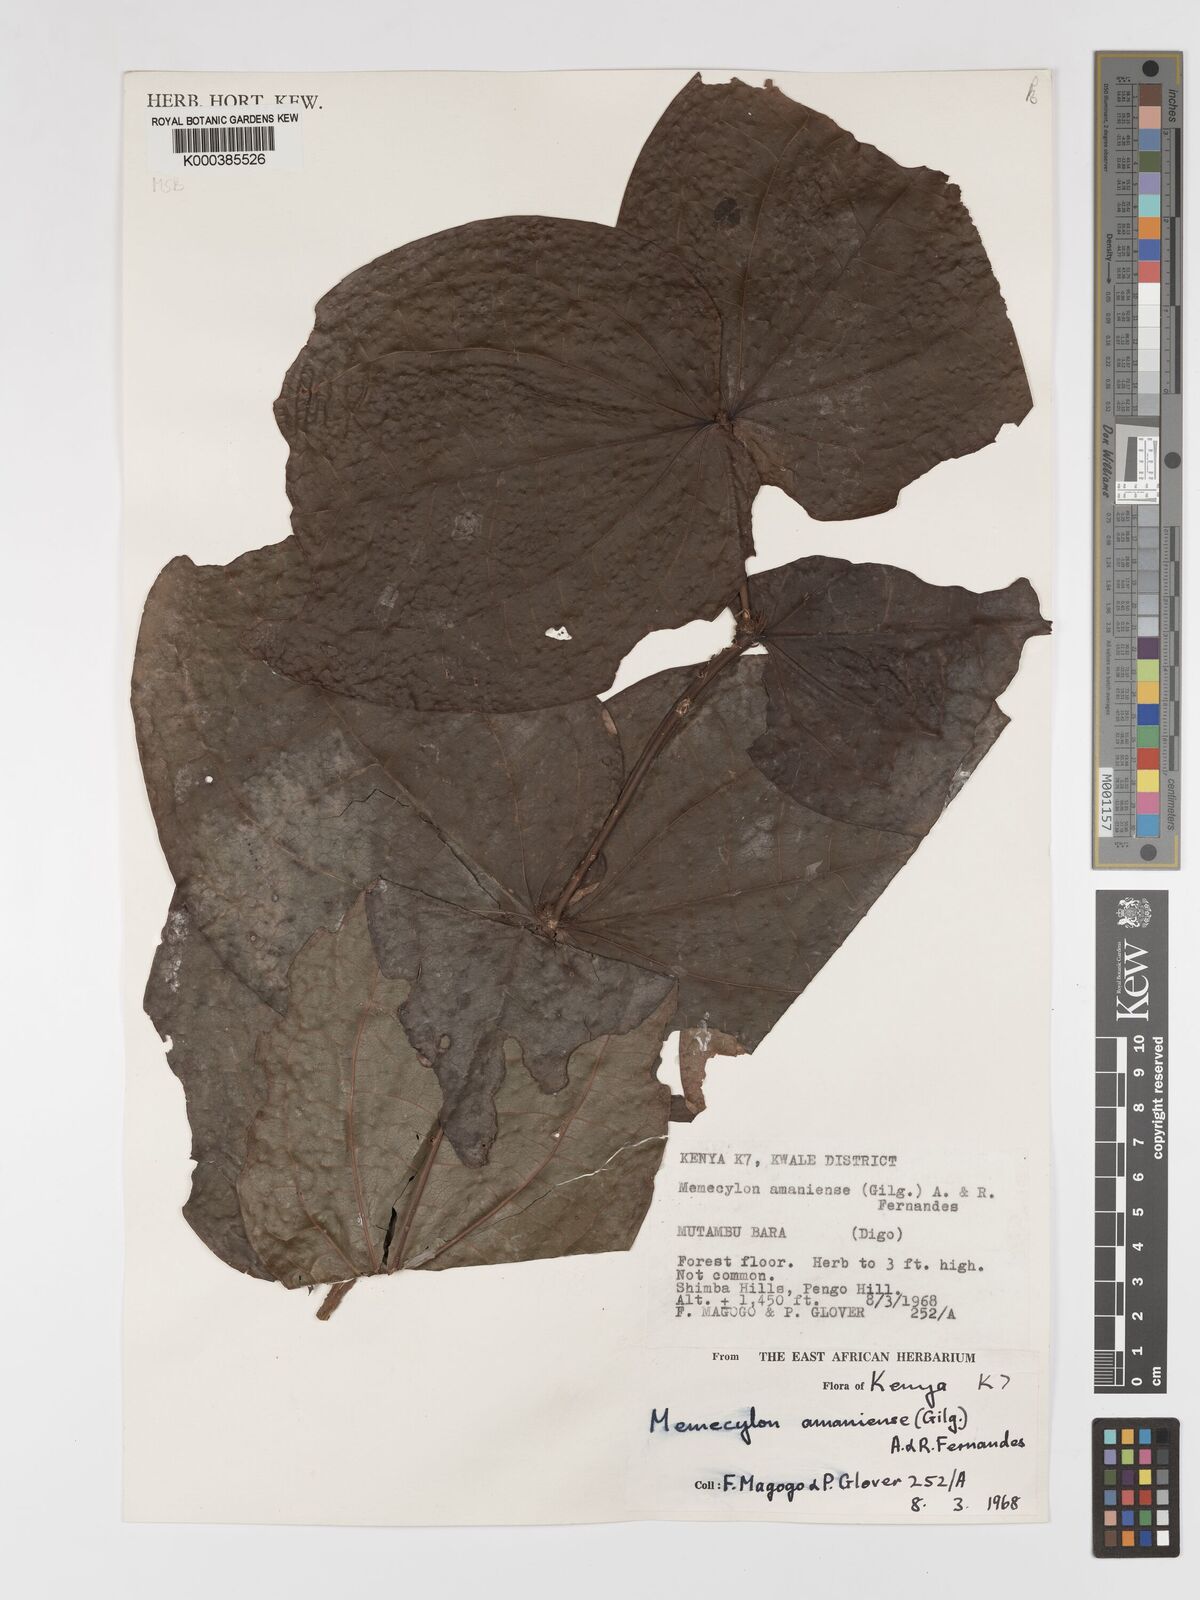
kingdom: Plantae
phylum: Tracheophyta
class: Magnoliopsida
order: Myrtales
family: Melastomataceae
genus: Warneckea
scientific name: Warneckea amaniensis
